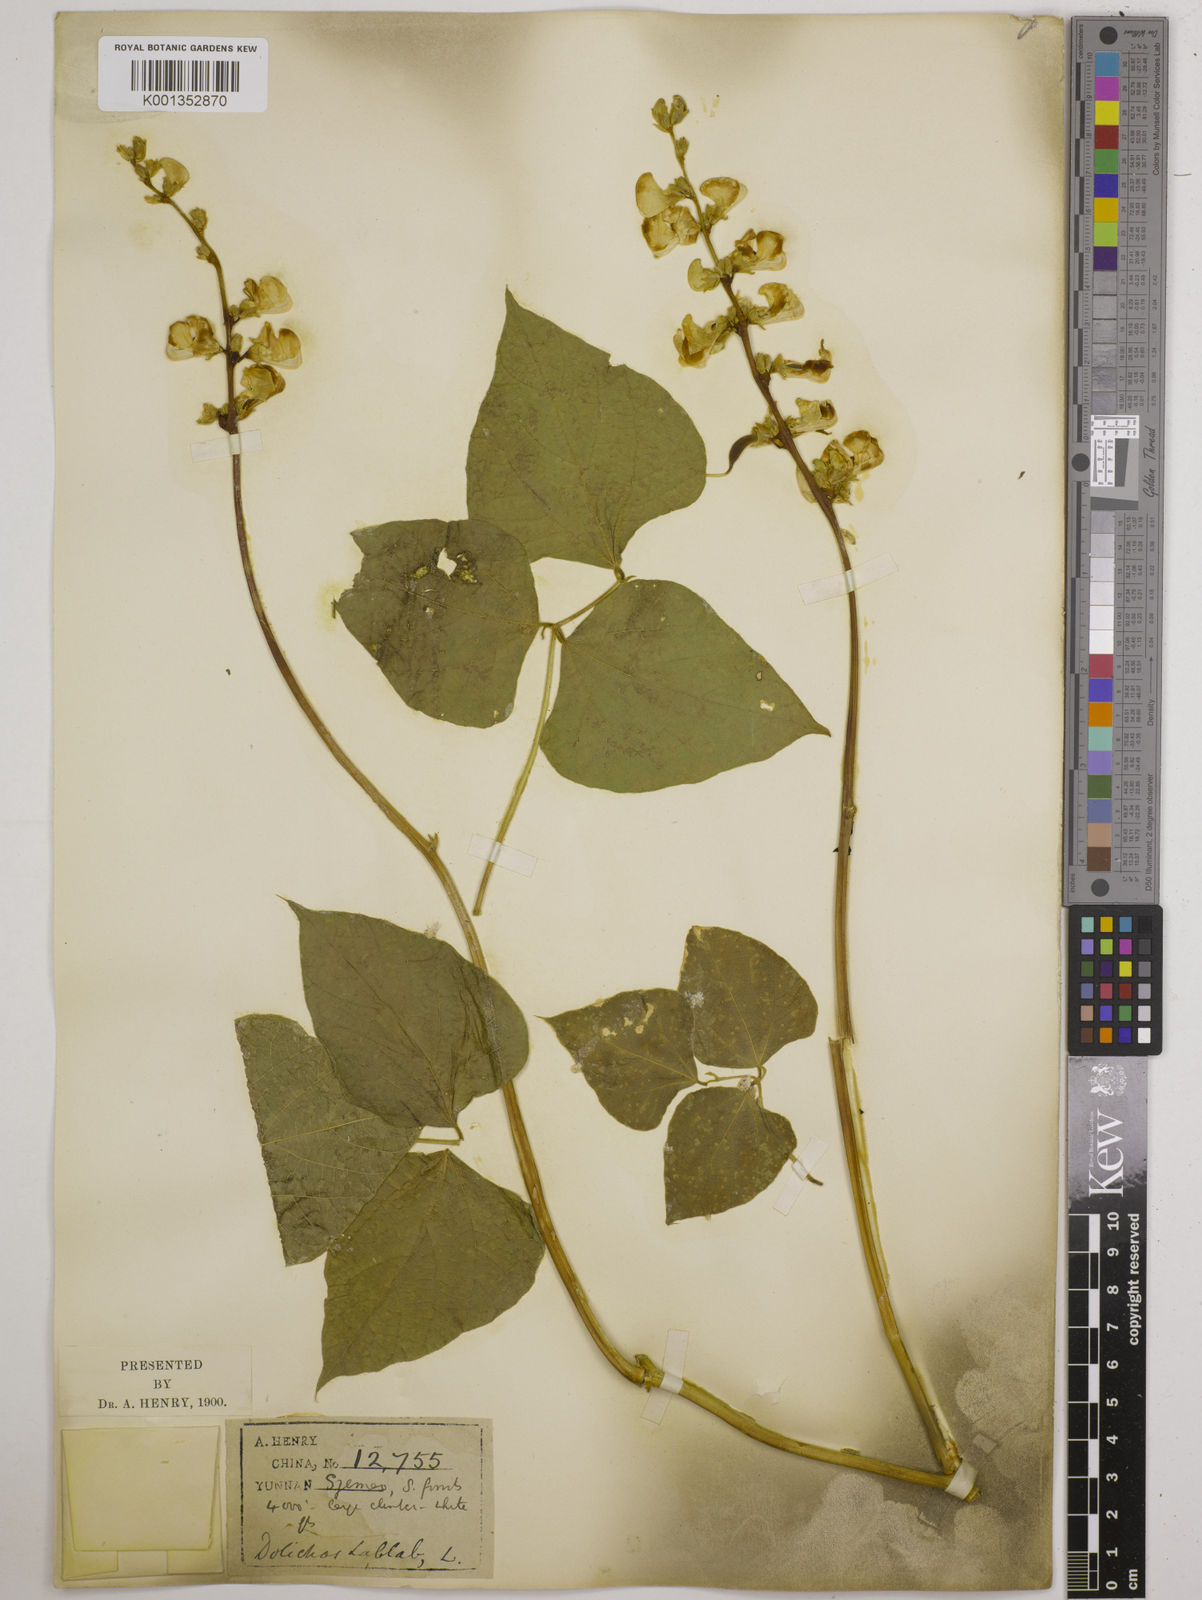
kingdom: Plantae
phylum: Tracheophyta
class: Magnoliopsida
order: Fabales
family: Fabaceae
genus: Lablab
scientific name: Lablab purpureus
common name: Lablab-bean
